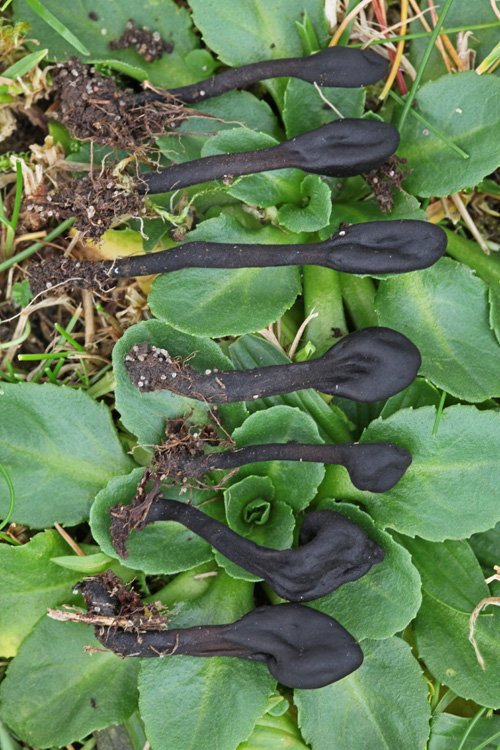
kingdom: Fungi
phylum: Ascomycota
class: Geoglossomycetes
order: Geoglossales
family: Geoglossaceae
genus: Trichoglossum
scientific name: Trichoglossum hirsutum
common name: håret jordtunge
